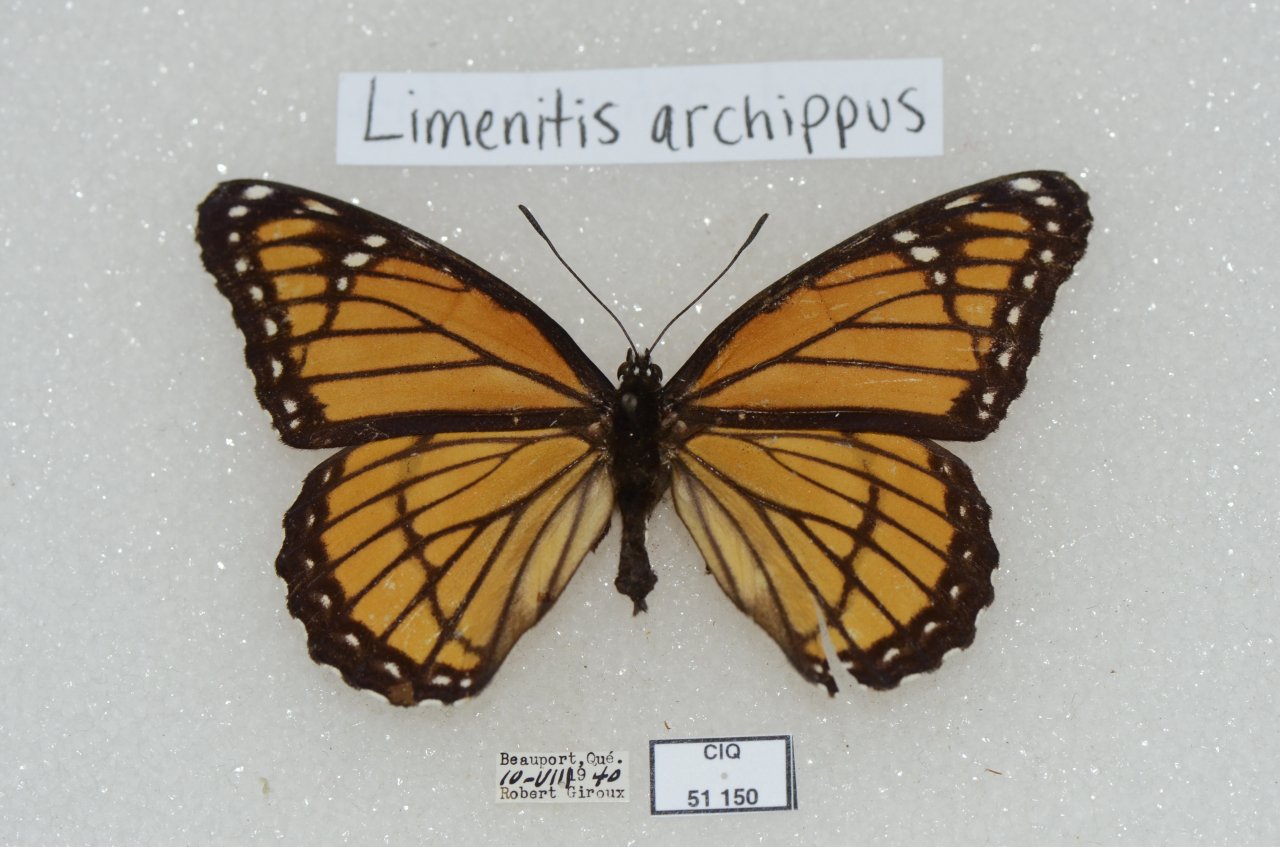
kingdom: Animalia
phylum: Arthropoda
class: Insecta
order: Lepidoptera
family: Nymphalidae
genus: Limenitis
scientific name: Limenitis archippus
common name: Viceroy
